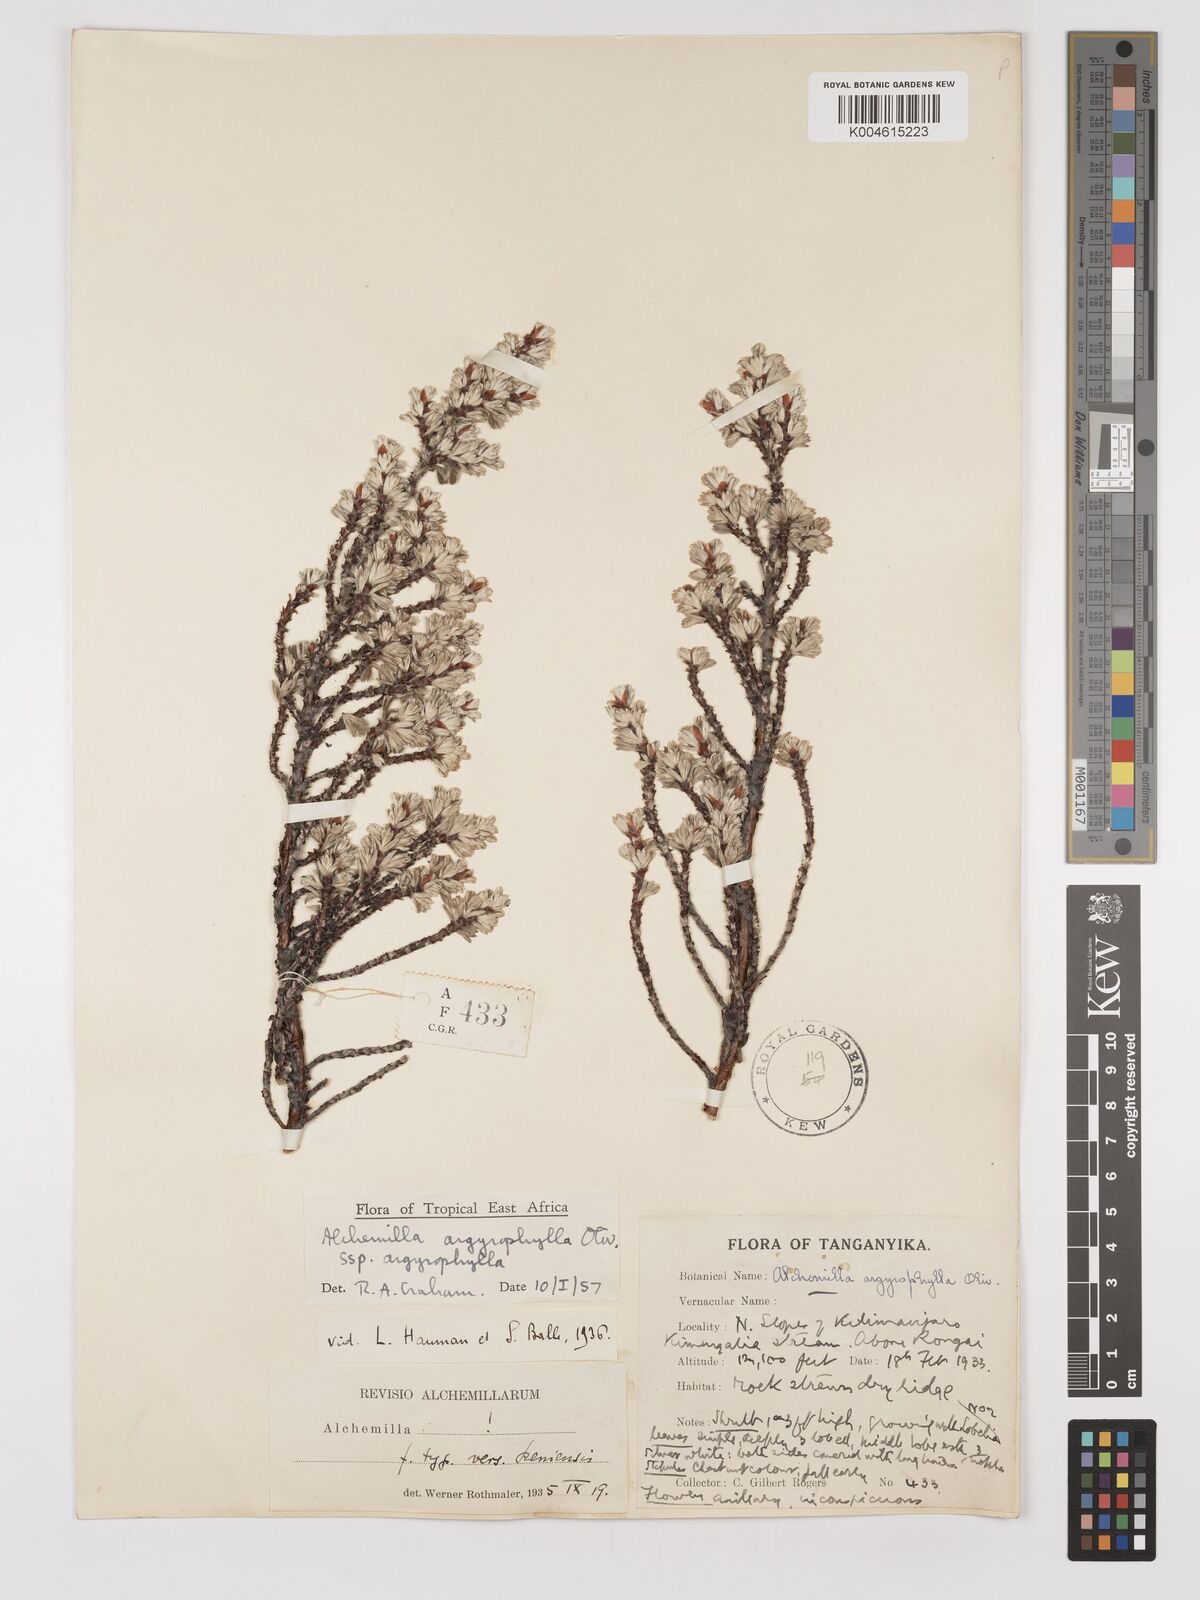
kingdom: Plantae
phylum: Tracheophyta
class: Magnoliopsida
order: Rosales
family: Rosaceae
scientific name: Rosaceae
